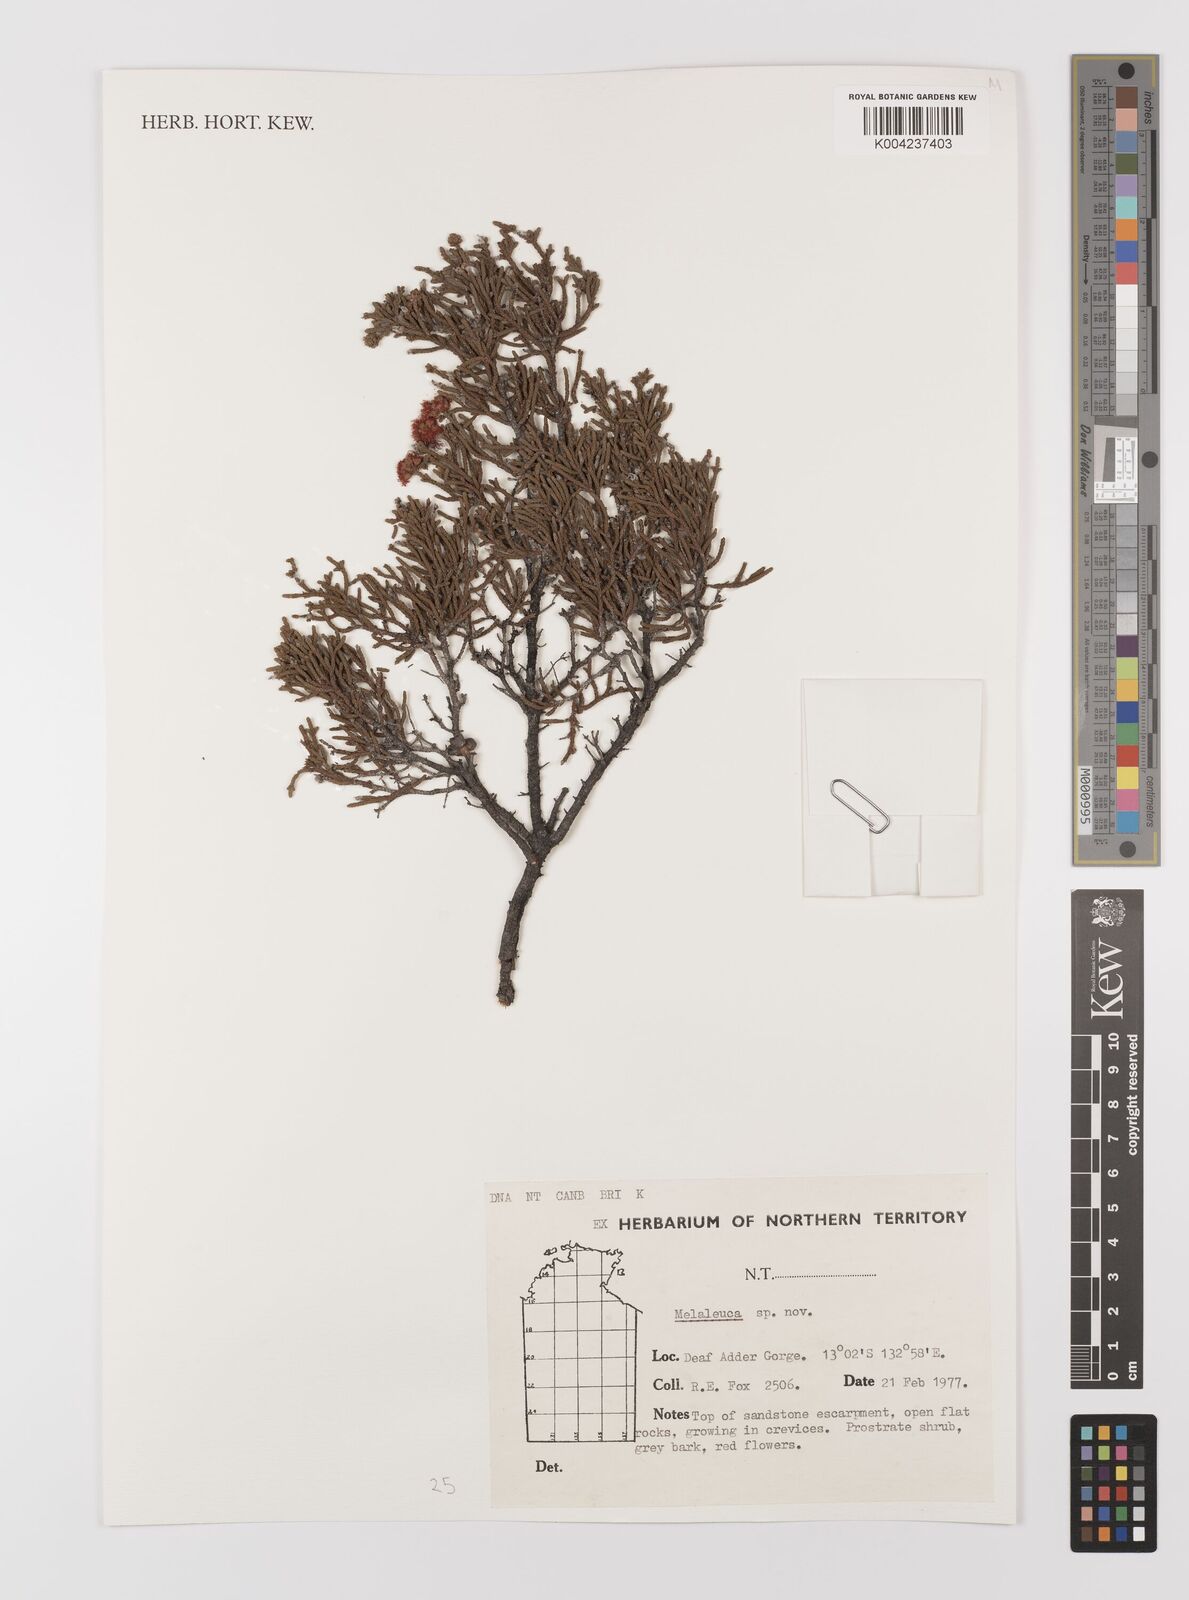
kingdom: Plantae
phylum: Tracheophyta
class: Magnoliopsida
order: Myrtales
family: Myrtaceae
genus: Melaleuca
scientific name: Melaleuca
